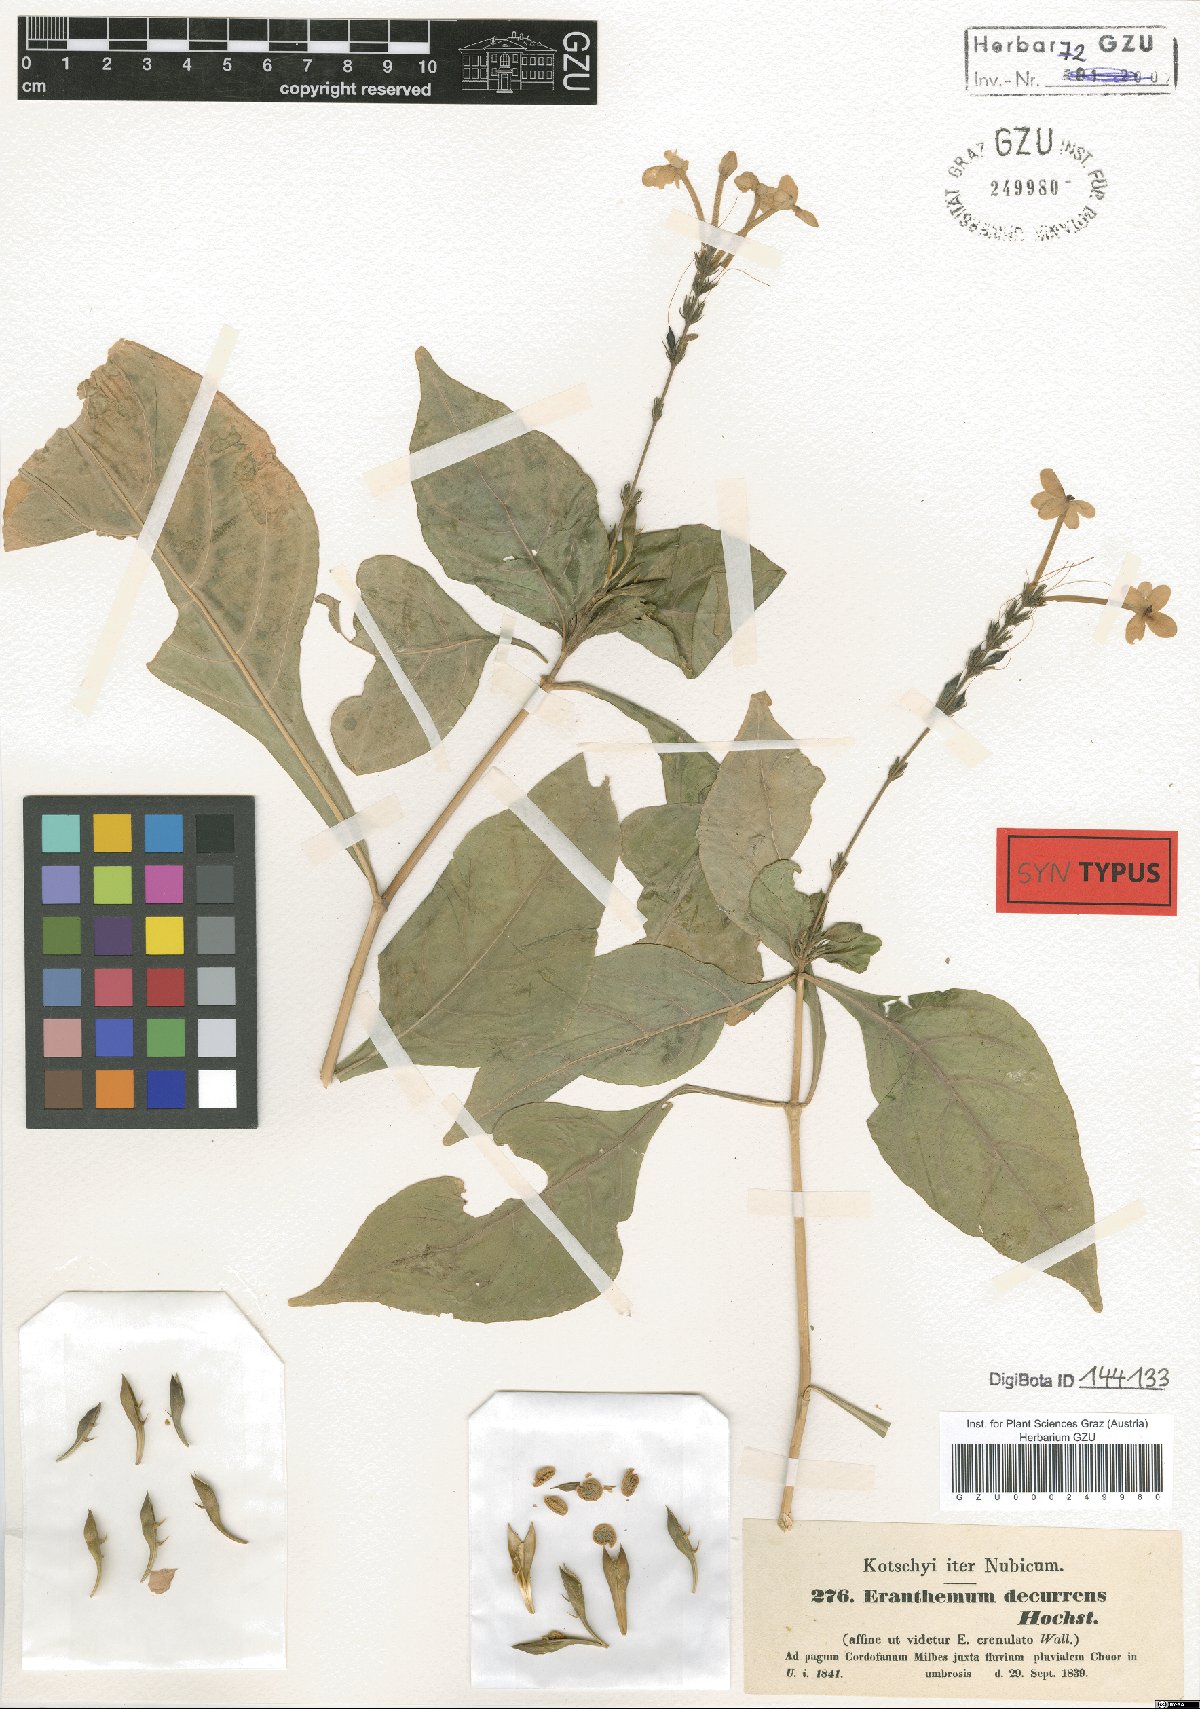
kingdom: Plantae
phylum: Tracheophyta
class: Magnoliopsida
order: Lamiales
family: Acanthaceae
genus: Ruspolia
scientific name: Ruspolia decurrens
